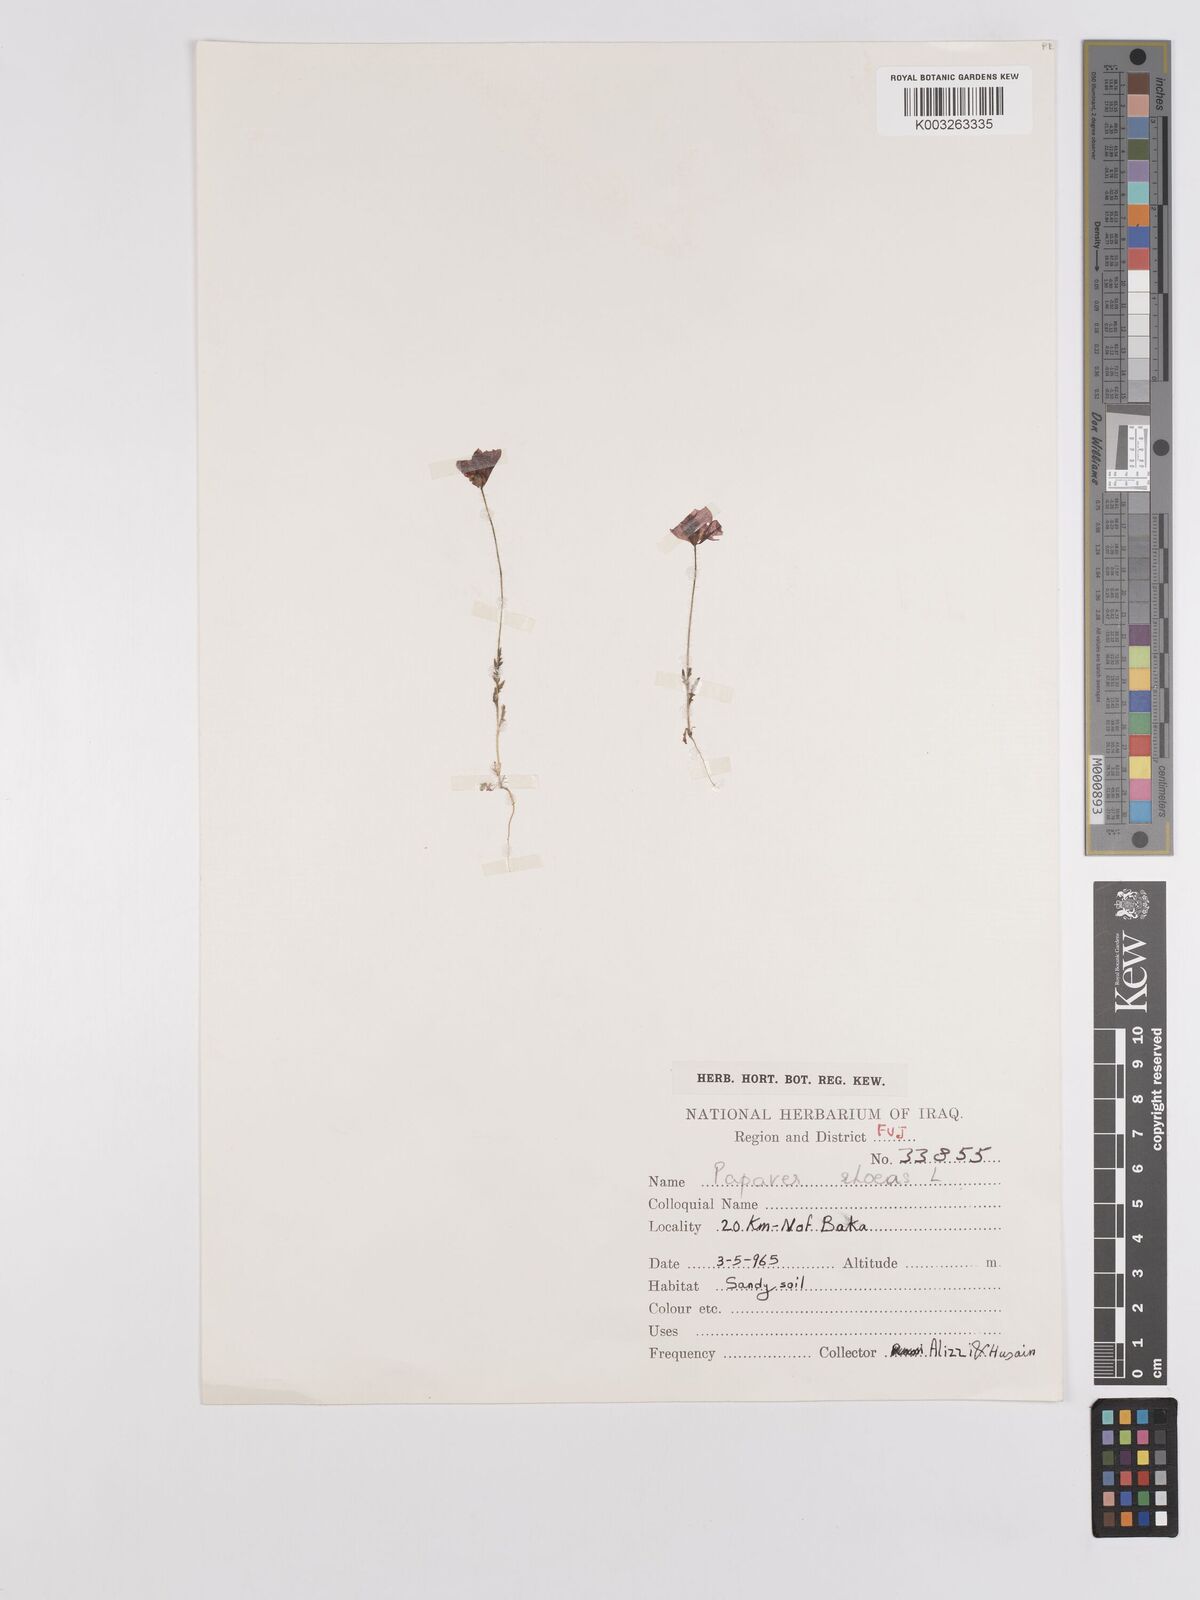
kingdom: Plantae
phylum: Tracheophyta
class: Magnoliopsida
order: Ranunculales
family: Papaveraceae
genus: Papaver
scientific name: Papaver rhoeas
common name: Corn poppy
